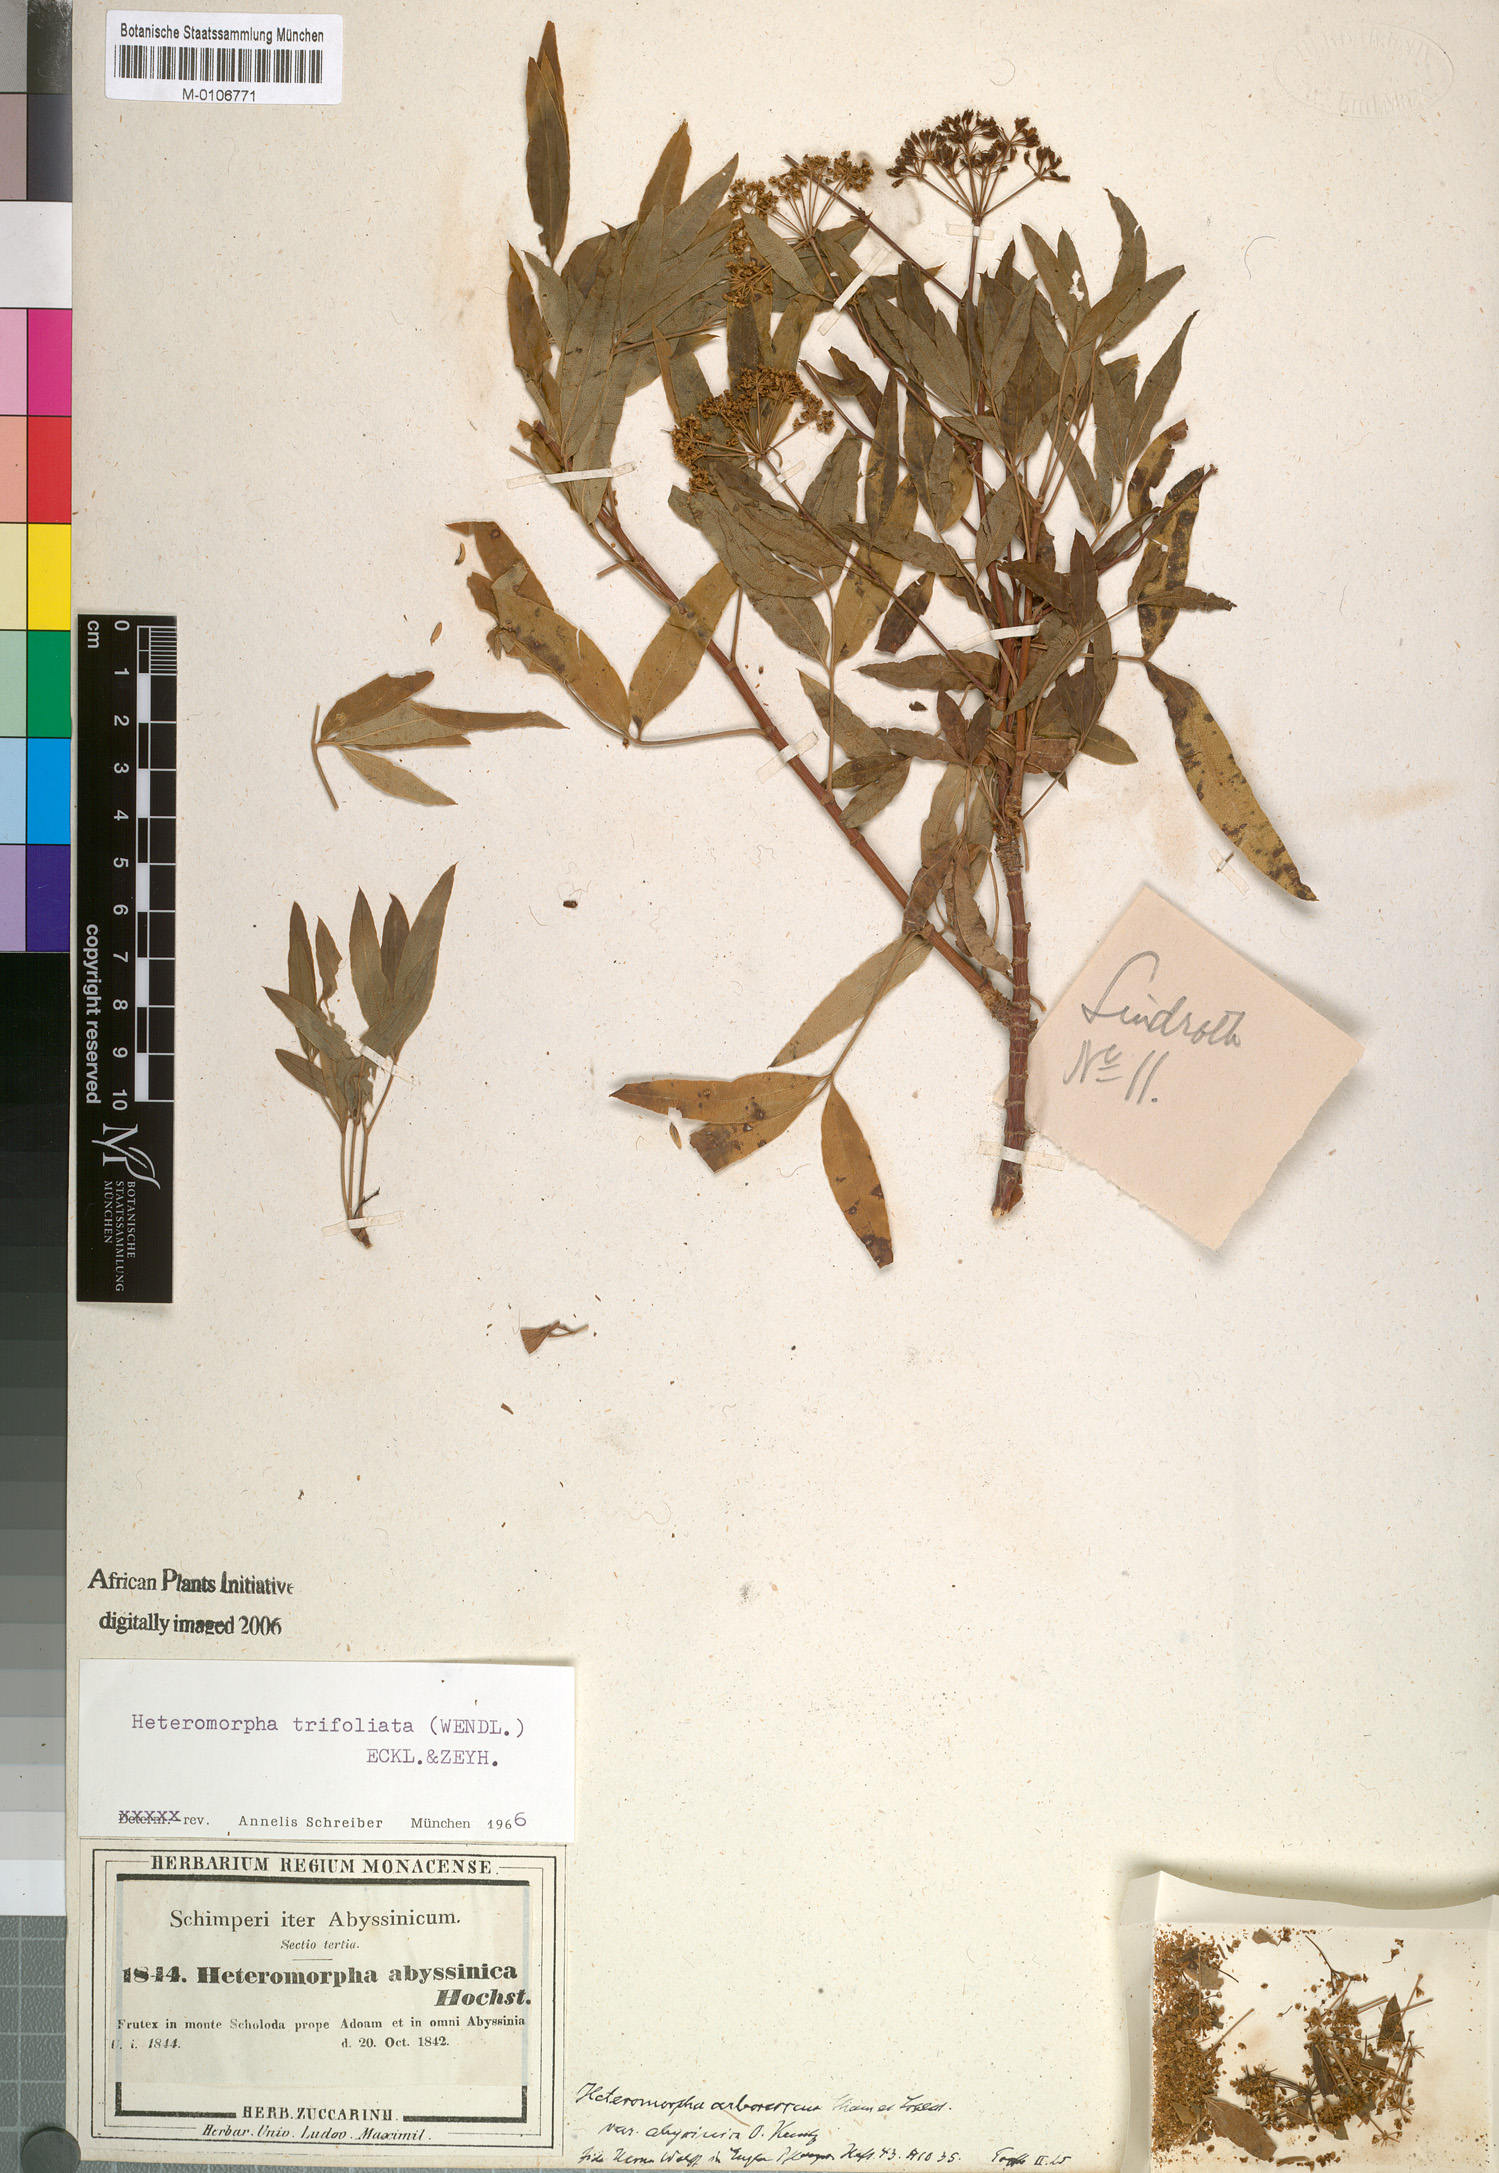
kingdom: Plantae
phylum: Tracheophyta
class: Magnoliopsida
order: Apiales
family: Apiaceae
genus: Heteromorpha
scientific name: Heteromorpha arborescens
